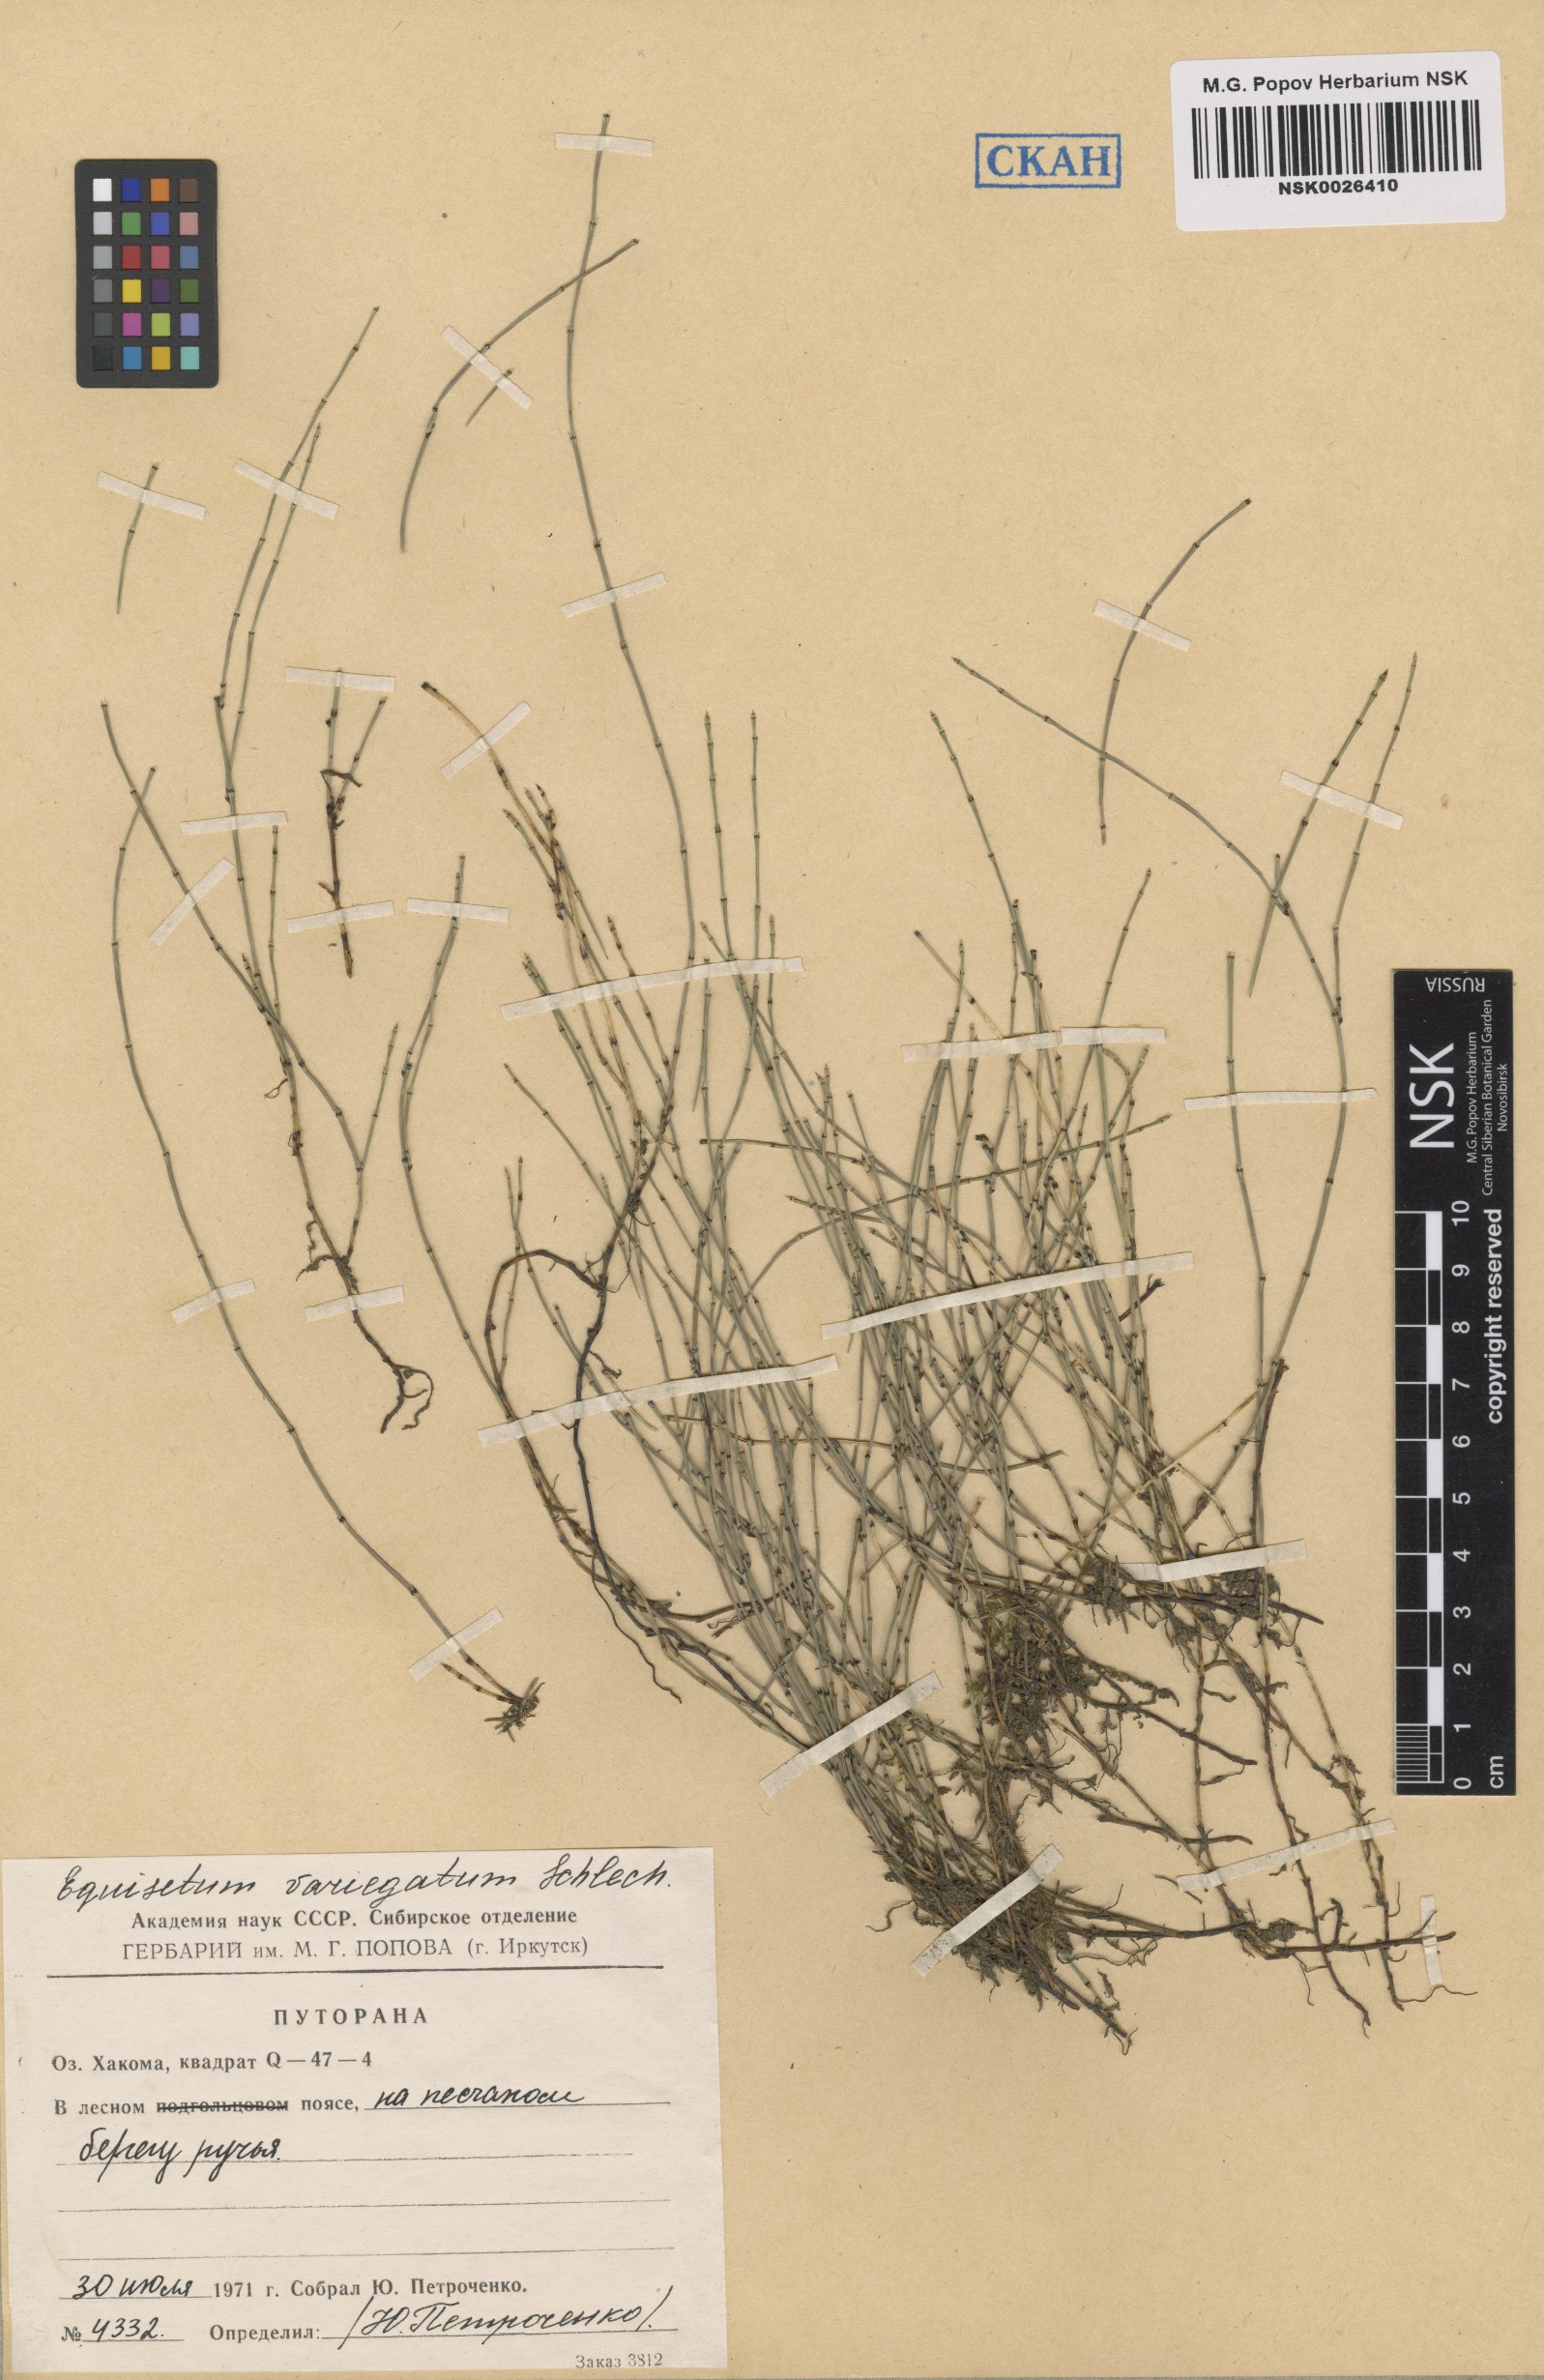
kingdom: Plantae
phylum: Tracheophyta
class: Polypodiopsida
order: Equisetales
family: Equisetaceae
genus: Equisetum
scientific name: Equisetum variegatum
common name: Variegated horsetail
